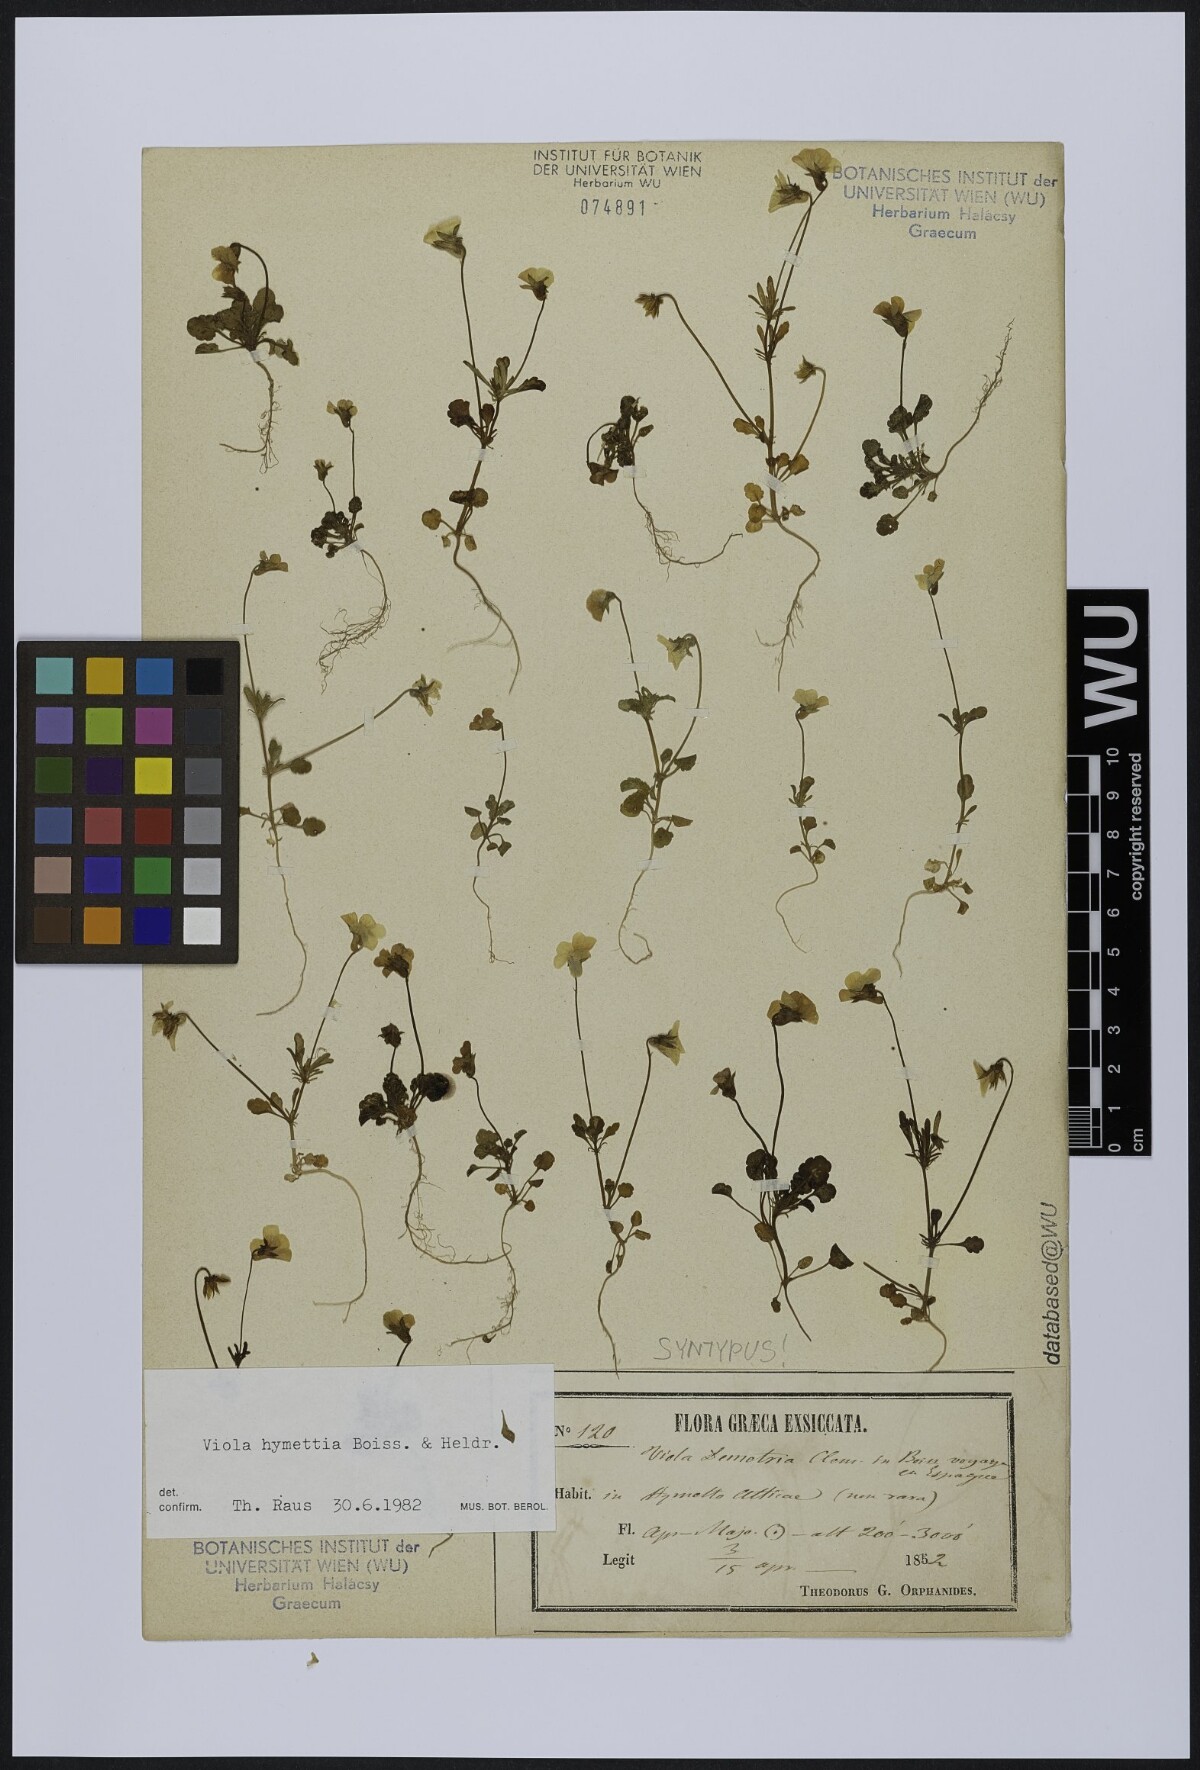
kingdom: Plantae
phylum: Tracheophyta
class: Magnoliopsida
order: Malpighiales
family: Violaceae
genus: Viola
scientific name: Viola hymettia
